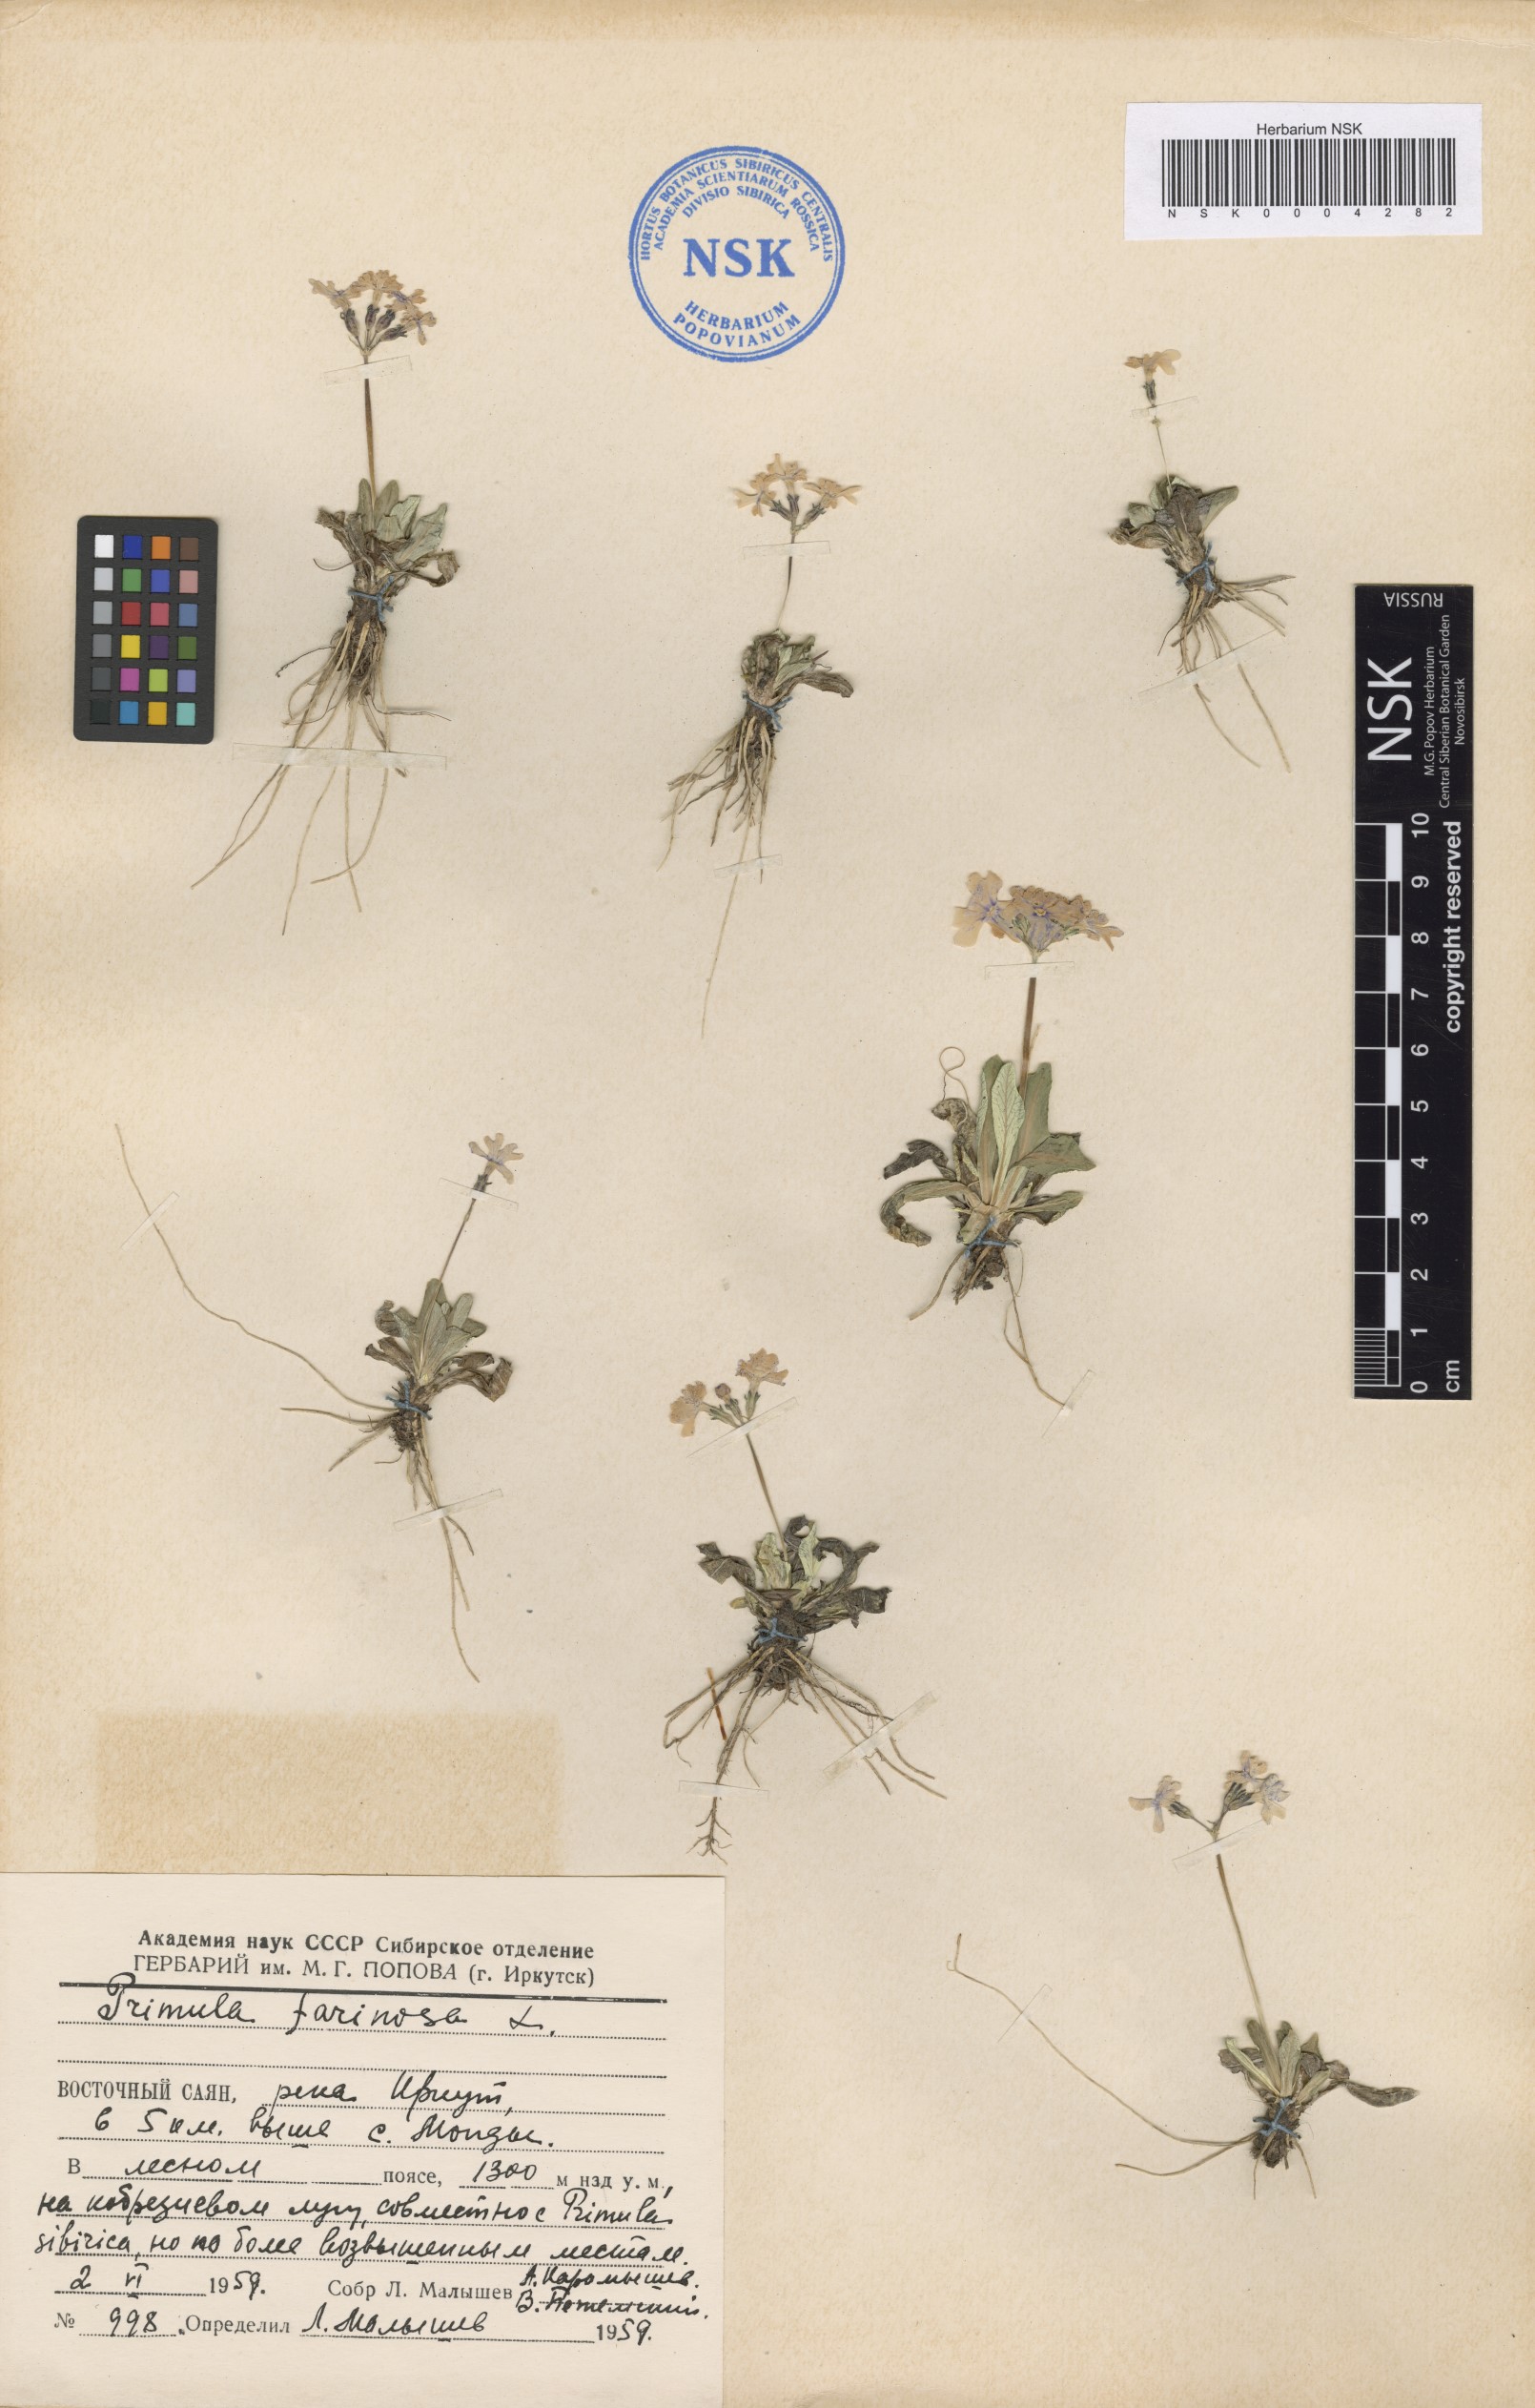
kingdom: Plantae
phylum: Tracheophyta
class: Magnoliopsida
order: Ericales
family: Primulaceae
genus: Primula
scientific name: Primula farinosa
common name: Bird's-eye primrose
